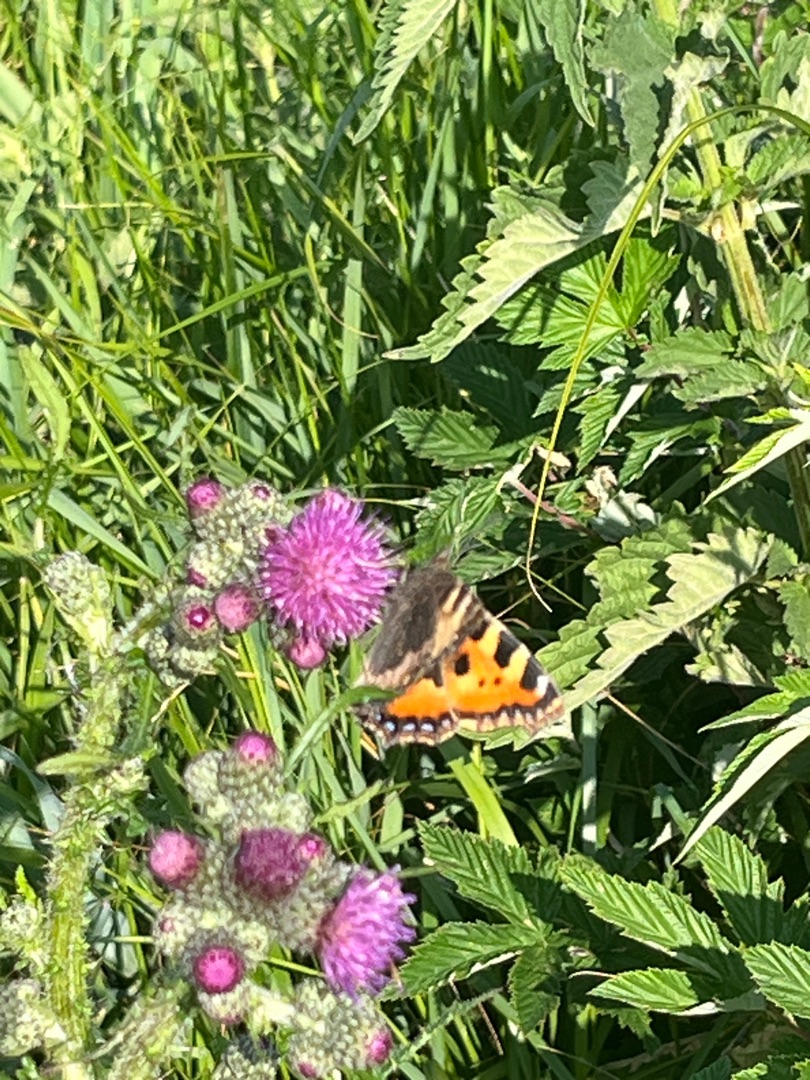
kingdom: Animalia
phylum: Arthropoda
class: Insecta
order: Lepidoptera
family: Nymphalidae
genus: Aglais
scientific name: Aglais urticae
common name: Nældens takvinge
